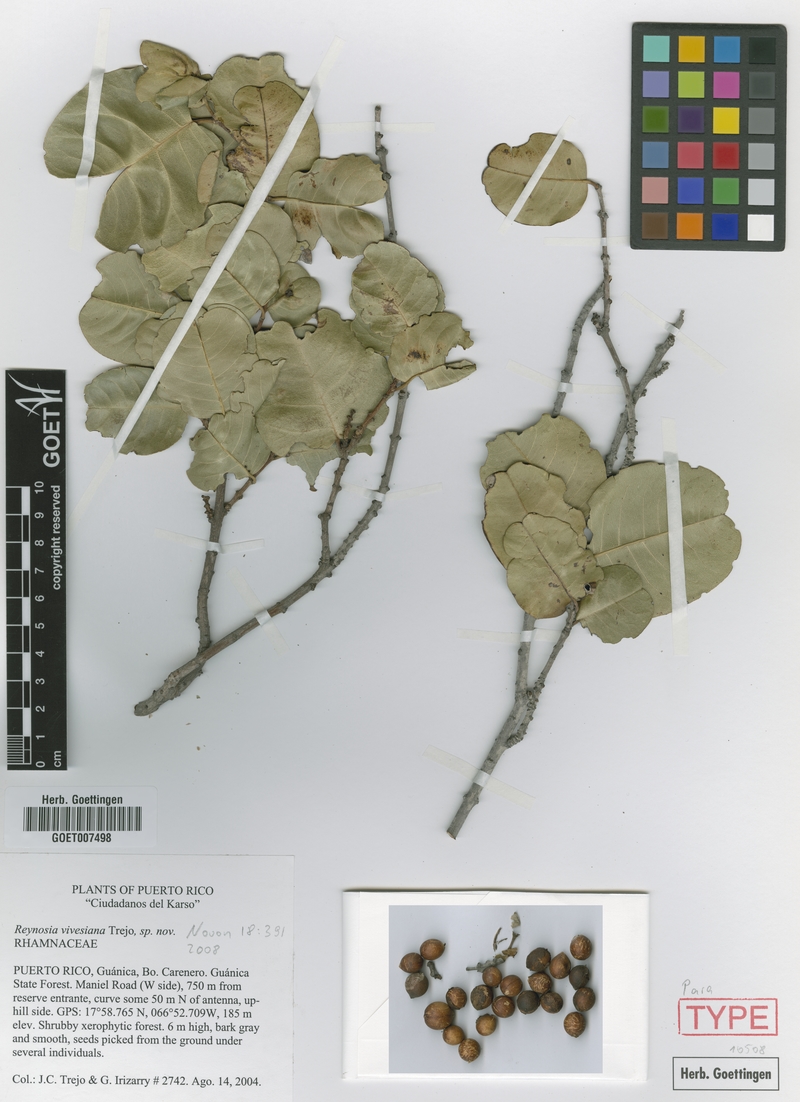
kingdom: Plantae
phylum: Tracheophyta
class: Magnoliopsida
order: Rosales
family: Rhamnaceae
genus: Reynosia
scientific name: Reynosia vivesiana
